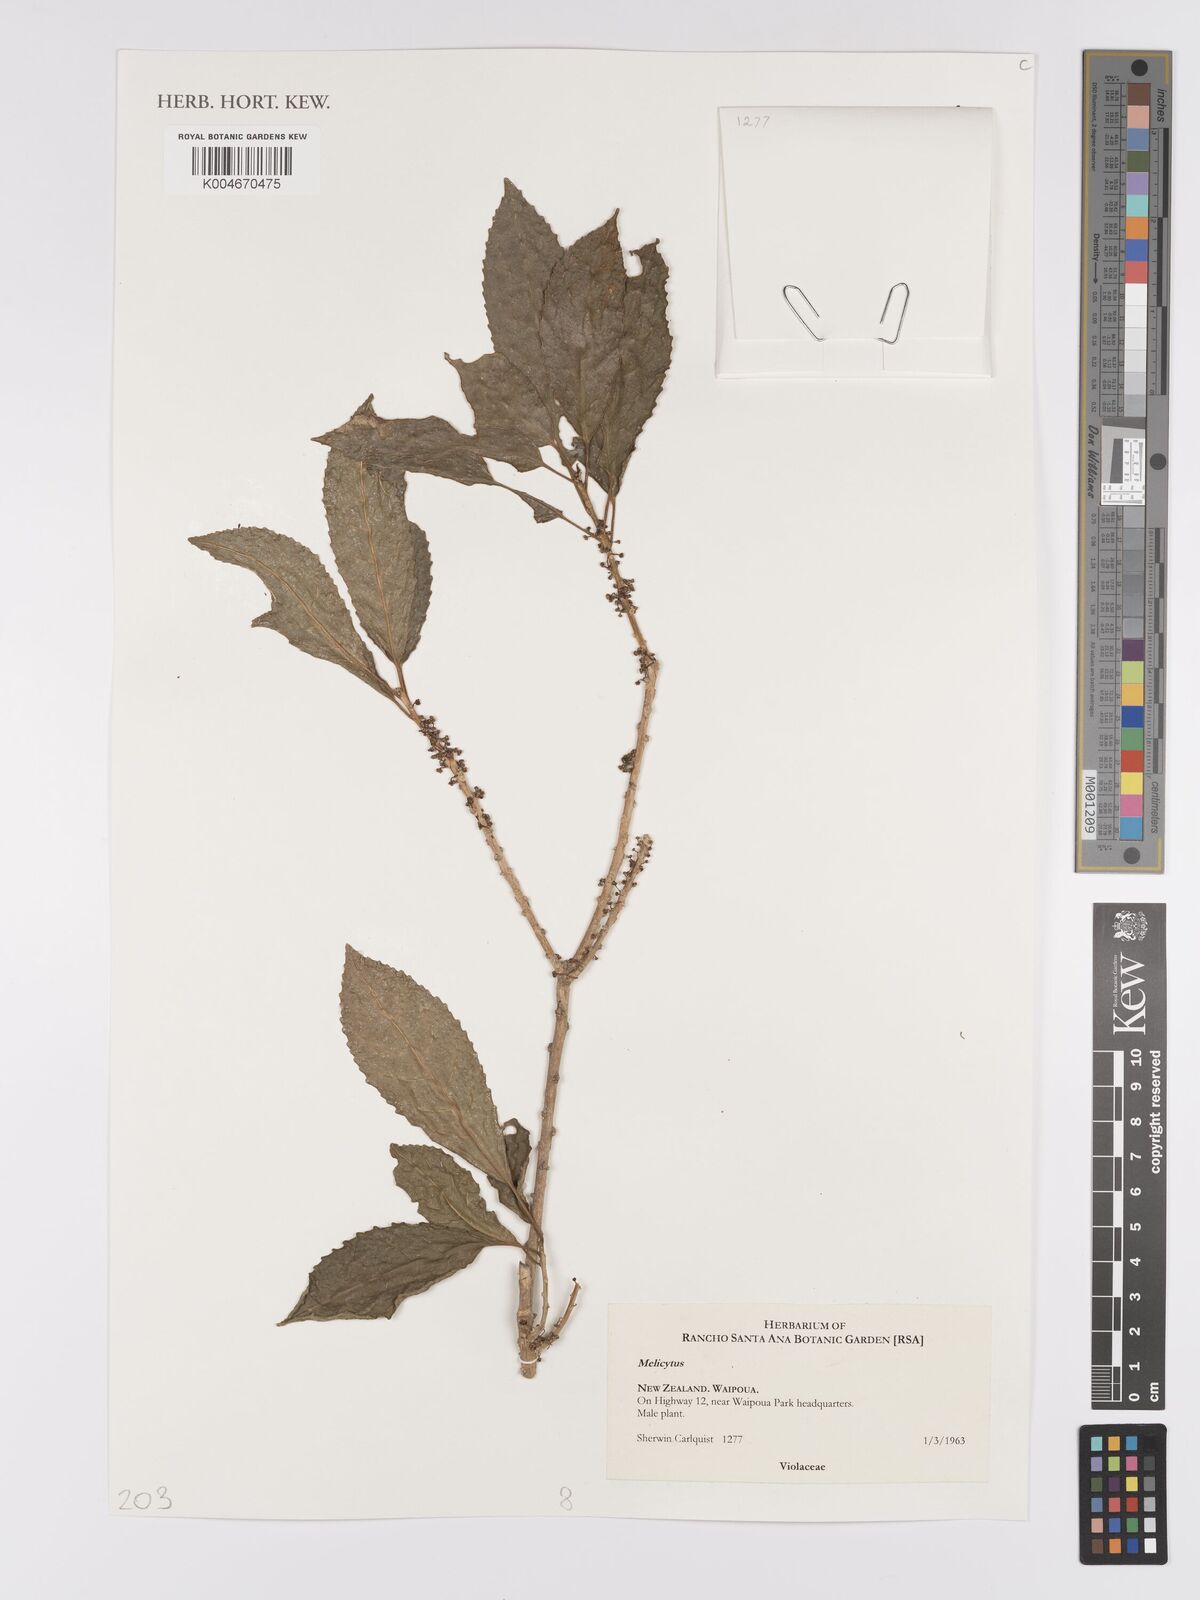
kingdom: Plantae
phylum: Tracheophyta
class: Magnoliopsida
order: Malpighiales
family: Violaceae
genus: Melicytus
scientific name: Melicytus
